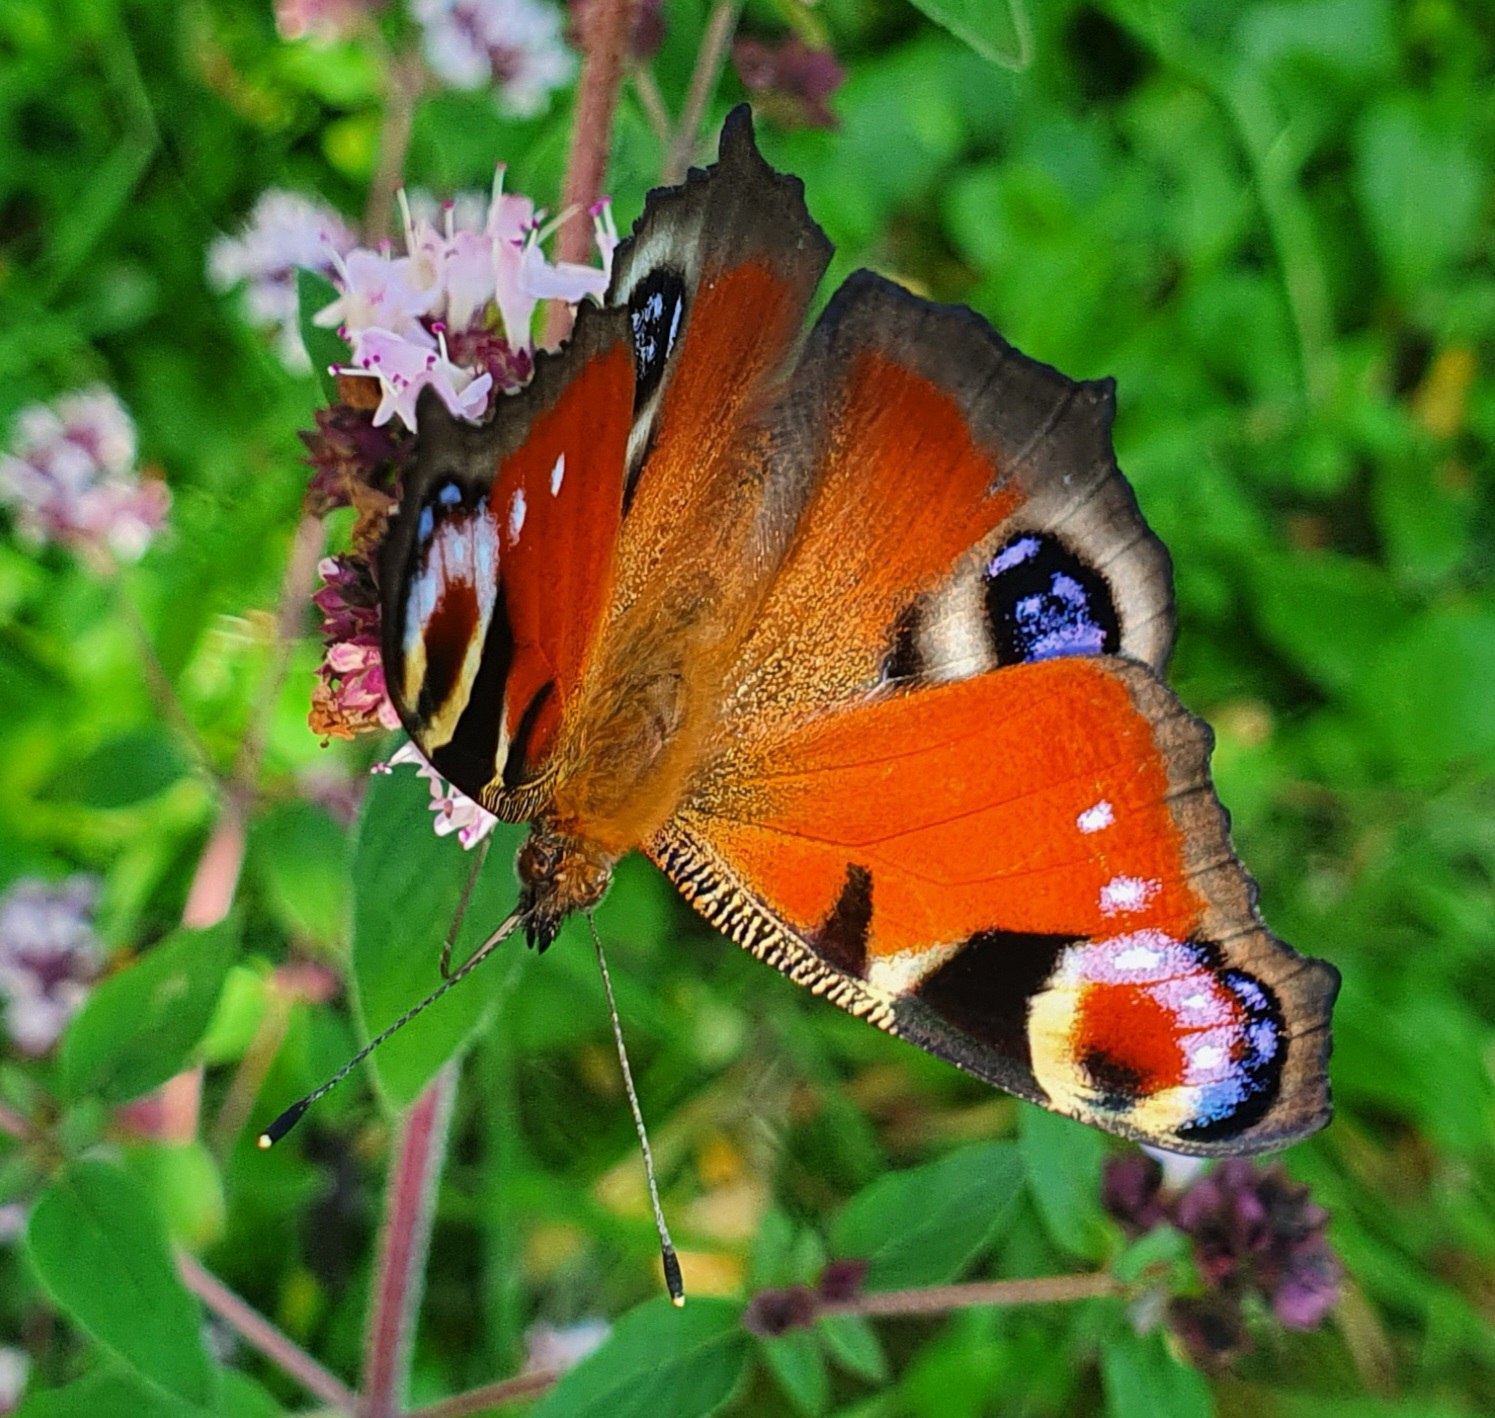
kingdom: Animalia
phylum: Arthropoda
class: Insecta
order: Lepidoptera
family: Nymphalidae
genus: Aglais
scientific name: Aglais io
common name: Dagpåfugleøje
